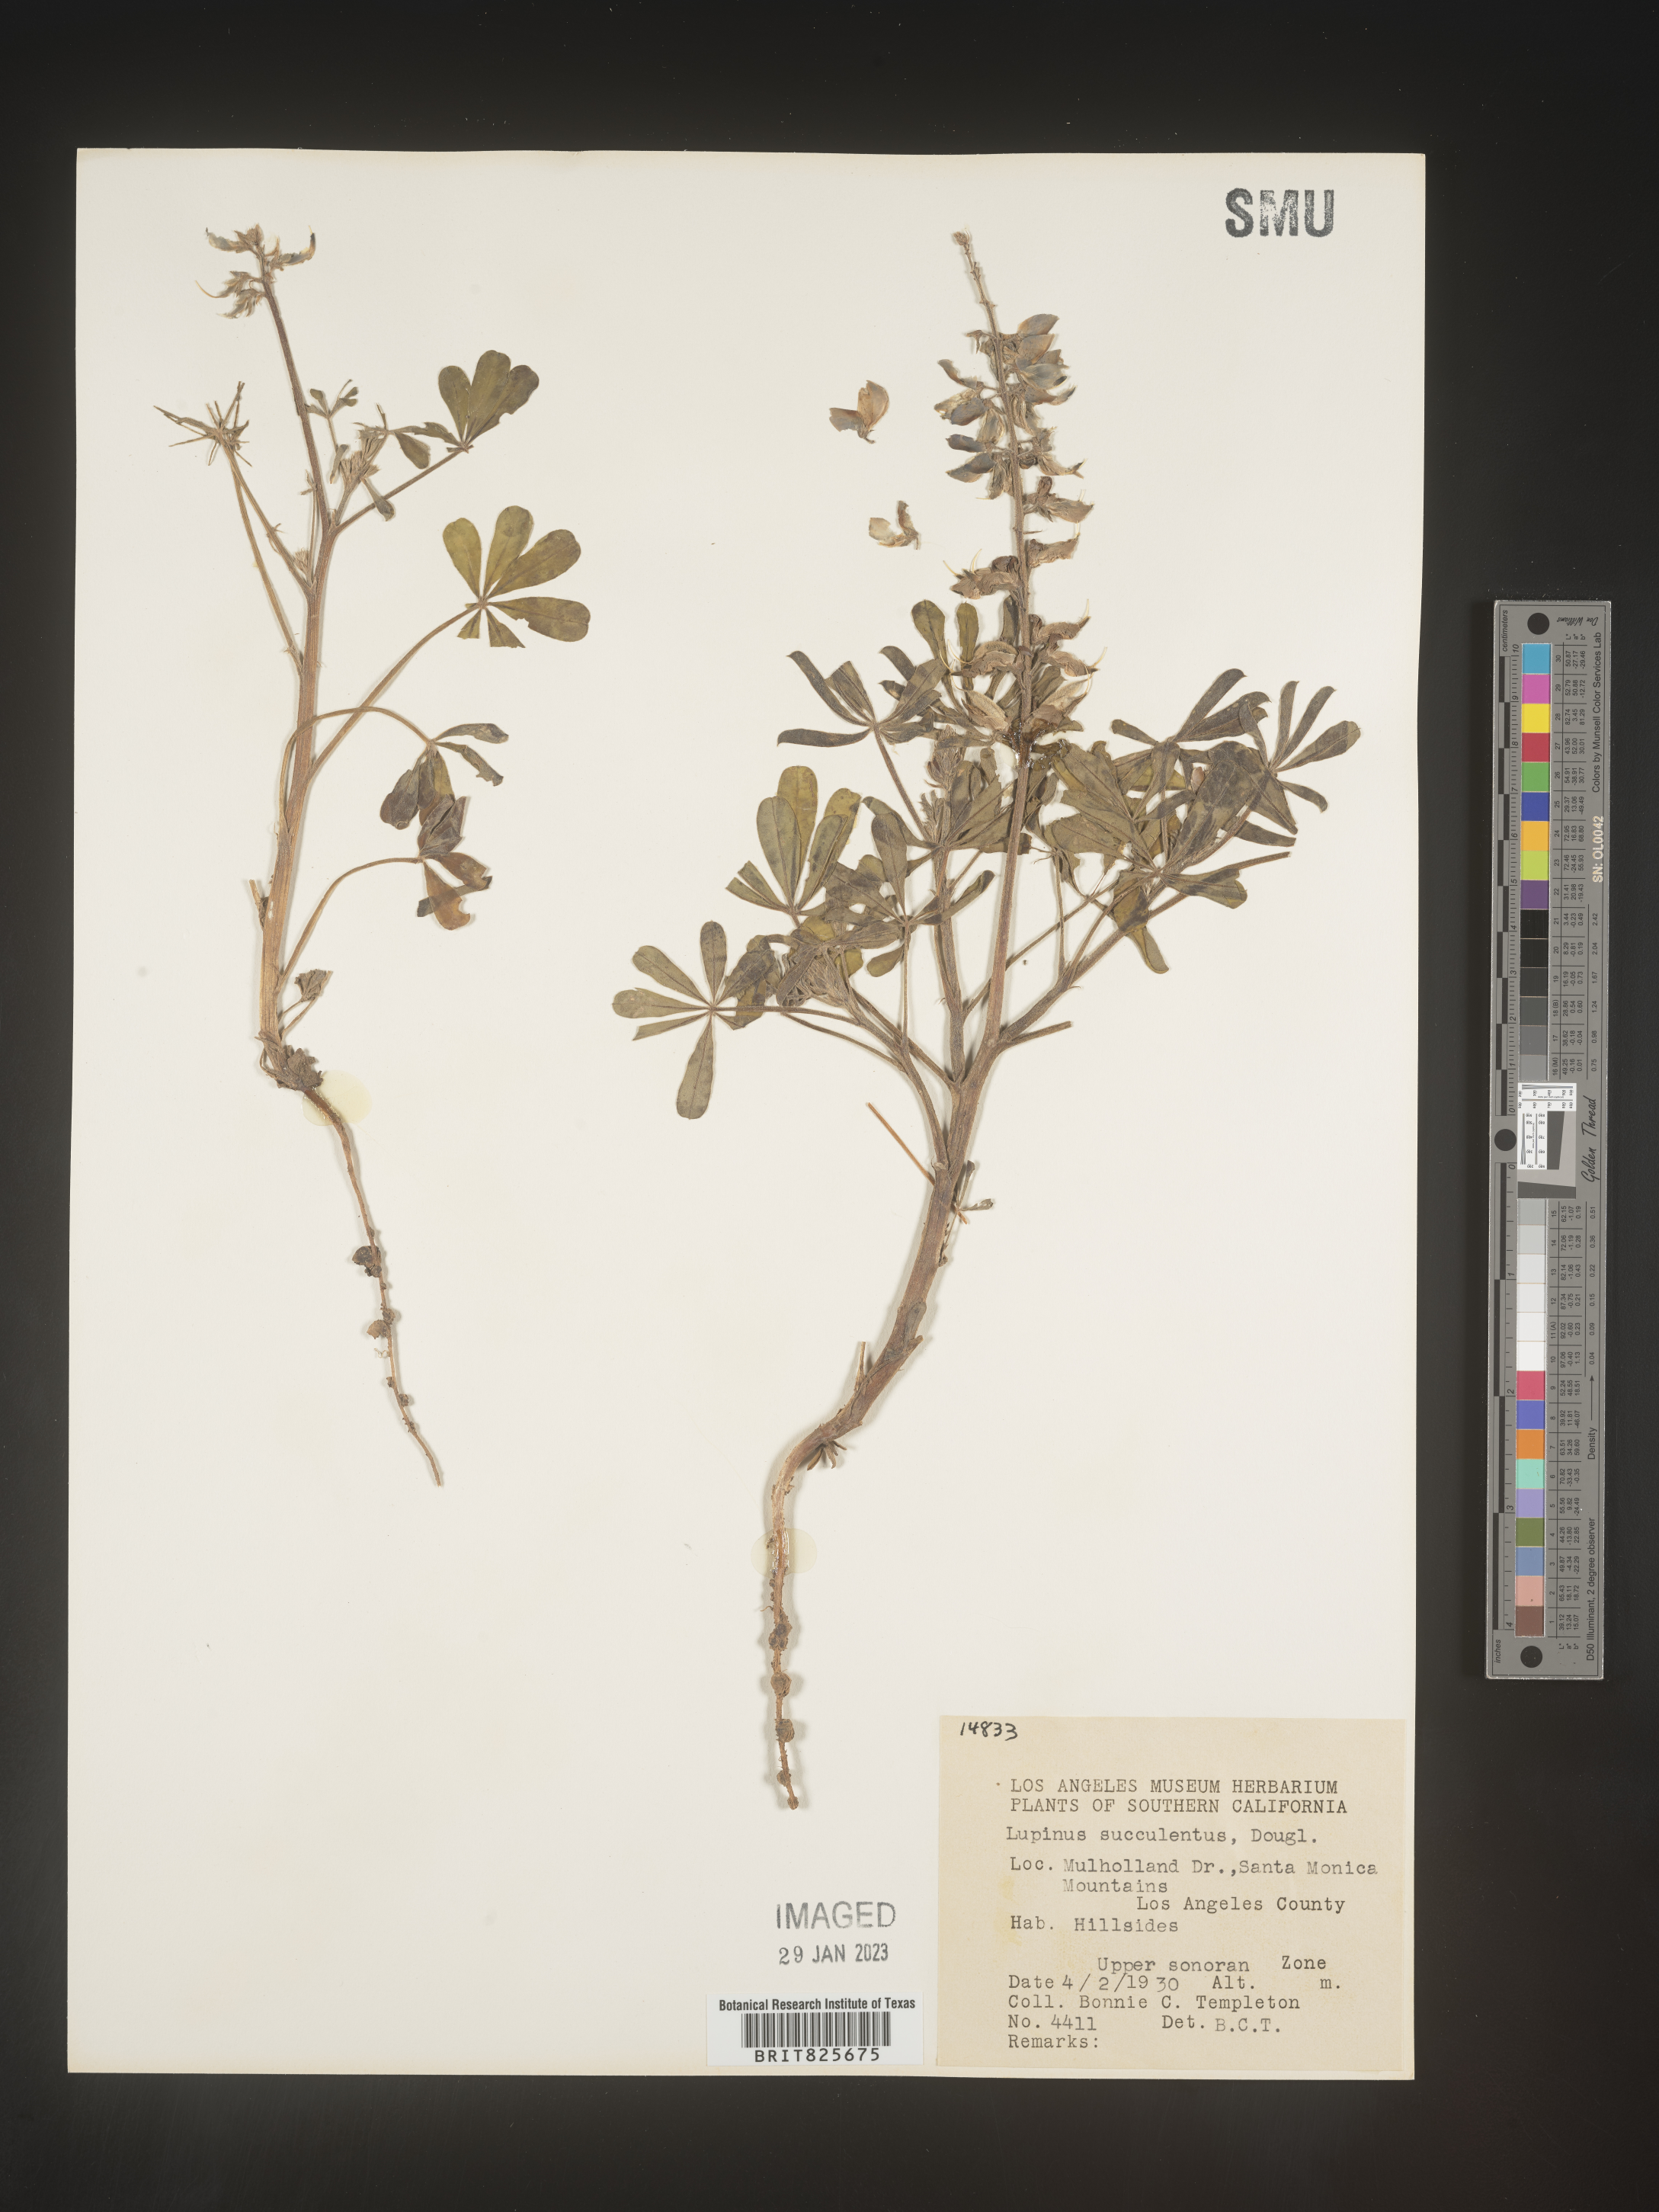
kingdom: Plantae
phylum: Tracheophyta
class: Magnoliopsida
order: Fabales
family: Fabaceae
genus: Lupinus
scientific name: Lupinus
